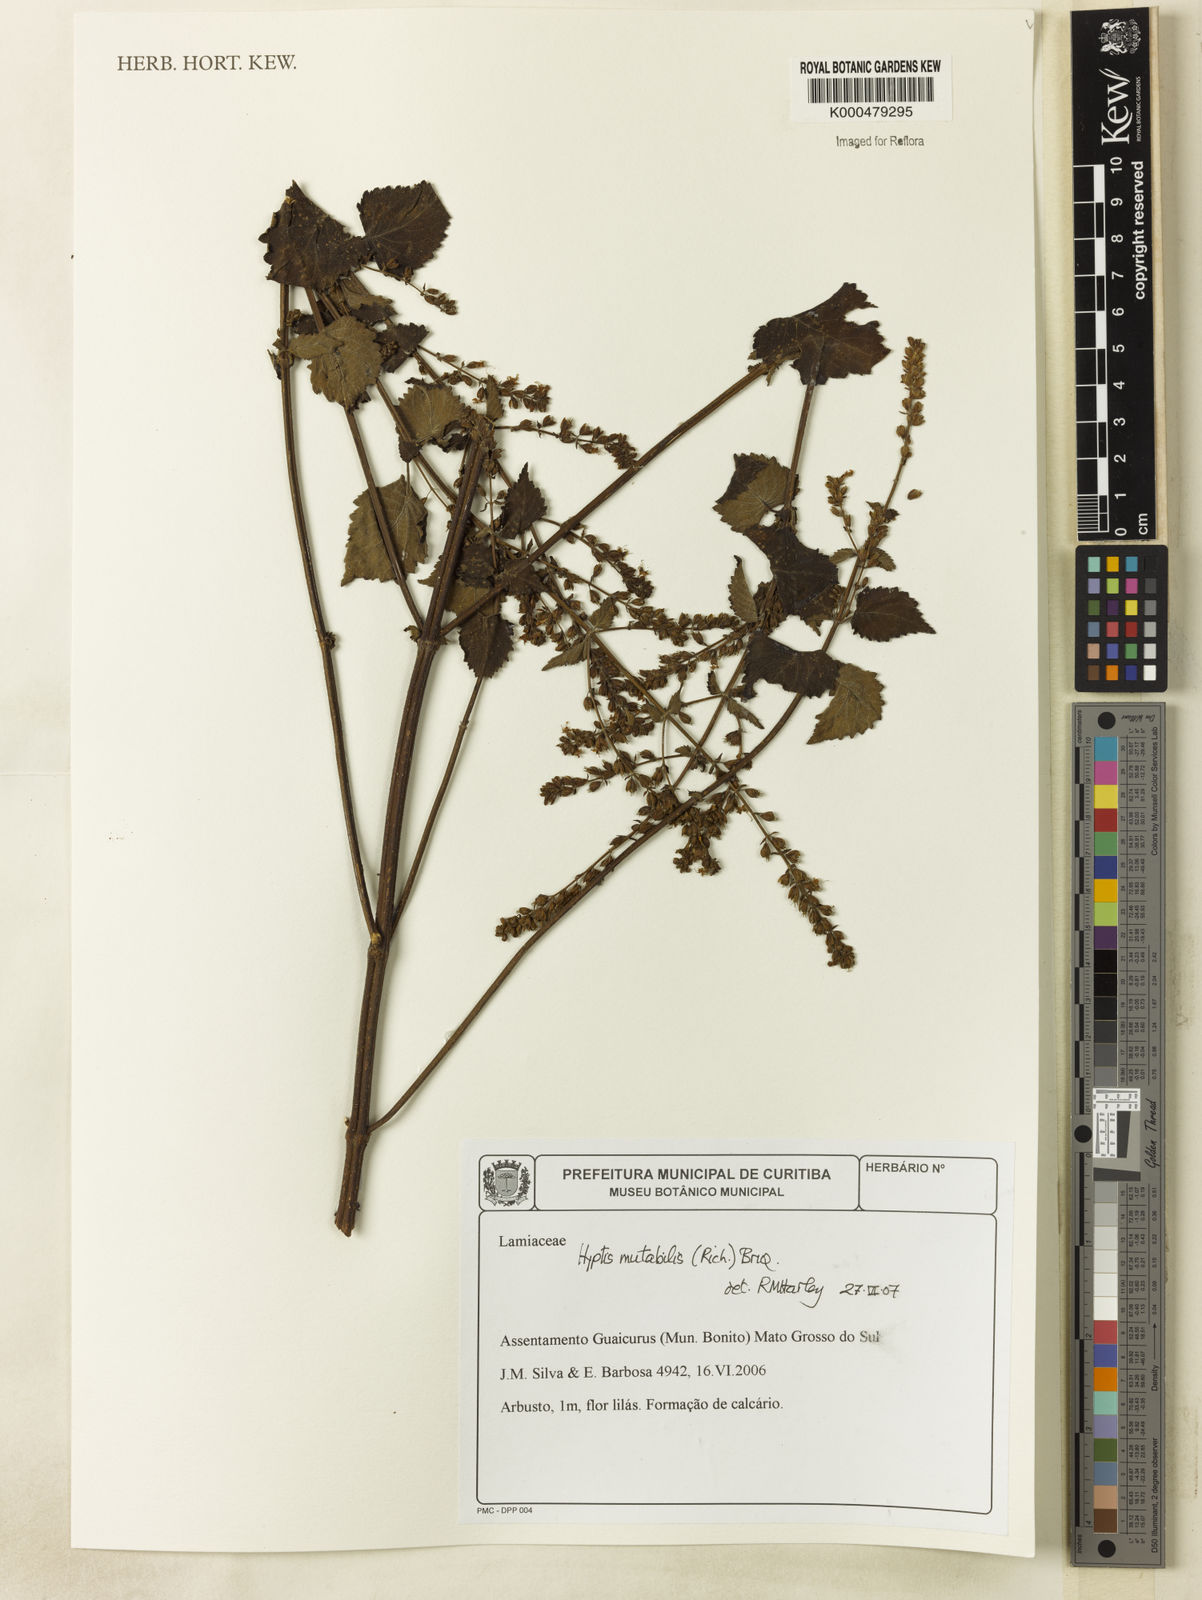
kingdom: Plantae
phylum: Tracheophyta
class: Magnoliopsida
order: Lamiales
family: Lamiaceae
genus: Cantinoa
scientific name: Cantinoa mutabilis
